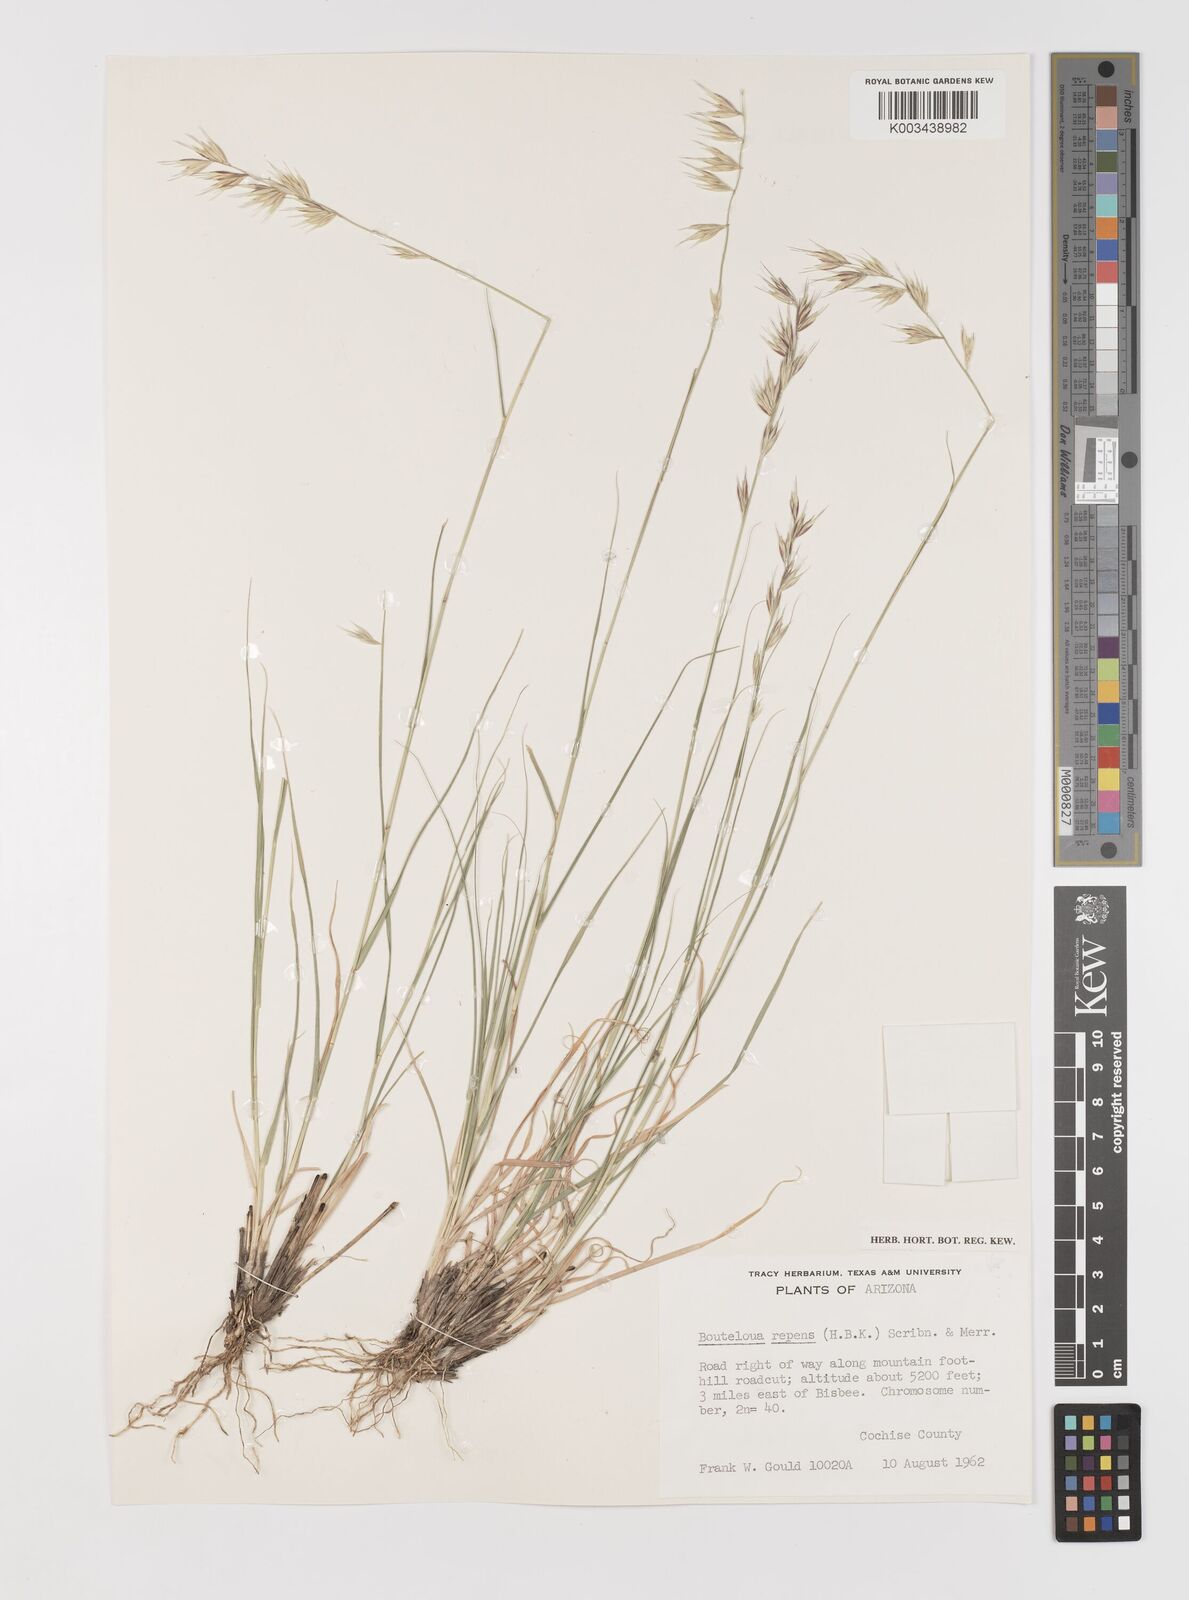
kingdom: Plantae
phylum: Tracheophyta
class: Liliopsida
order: Poales
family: Poaceae
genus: Bouteloua
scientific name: Bouteloua repens
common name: Slender grama
